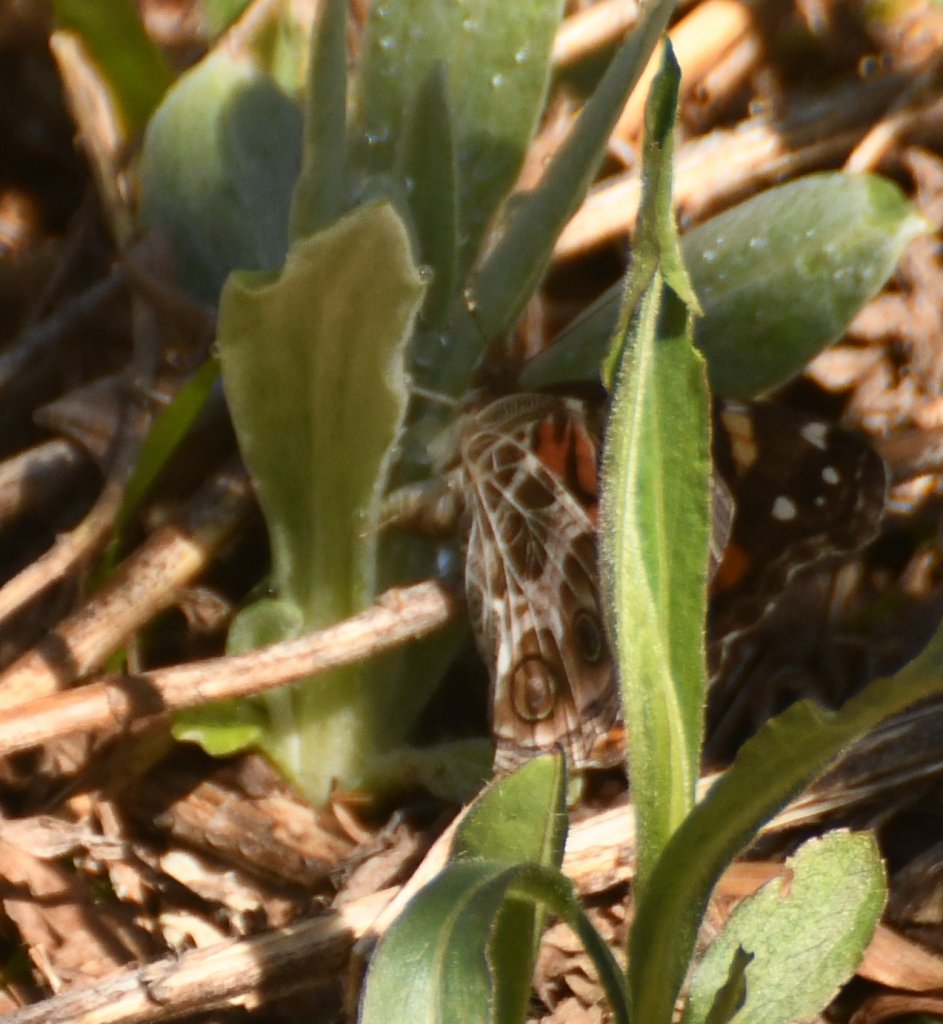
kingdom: Animalia
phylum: Arthropoda
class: Insecta
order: Lepidoptera
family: Nymphalidae
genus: Vanessa
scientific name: Vanessa virginiensis
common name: American Lady
